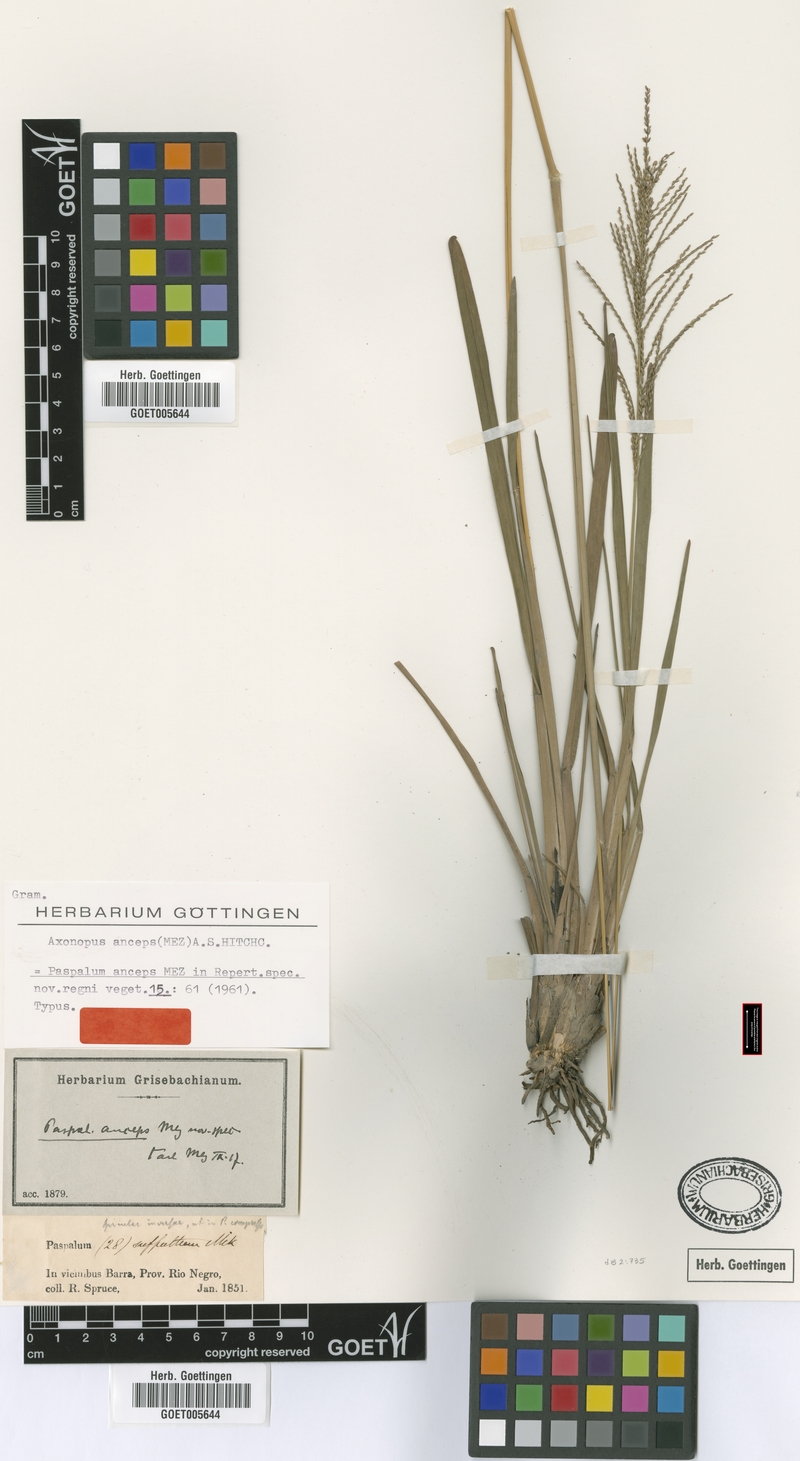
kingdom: Plantae
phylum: Tracheophyta
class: Liliopsida
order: Poales
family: Poaceae
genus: Axonopus
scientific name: Axonopus anceps
